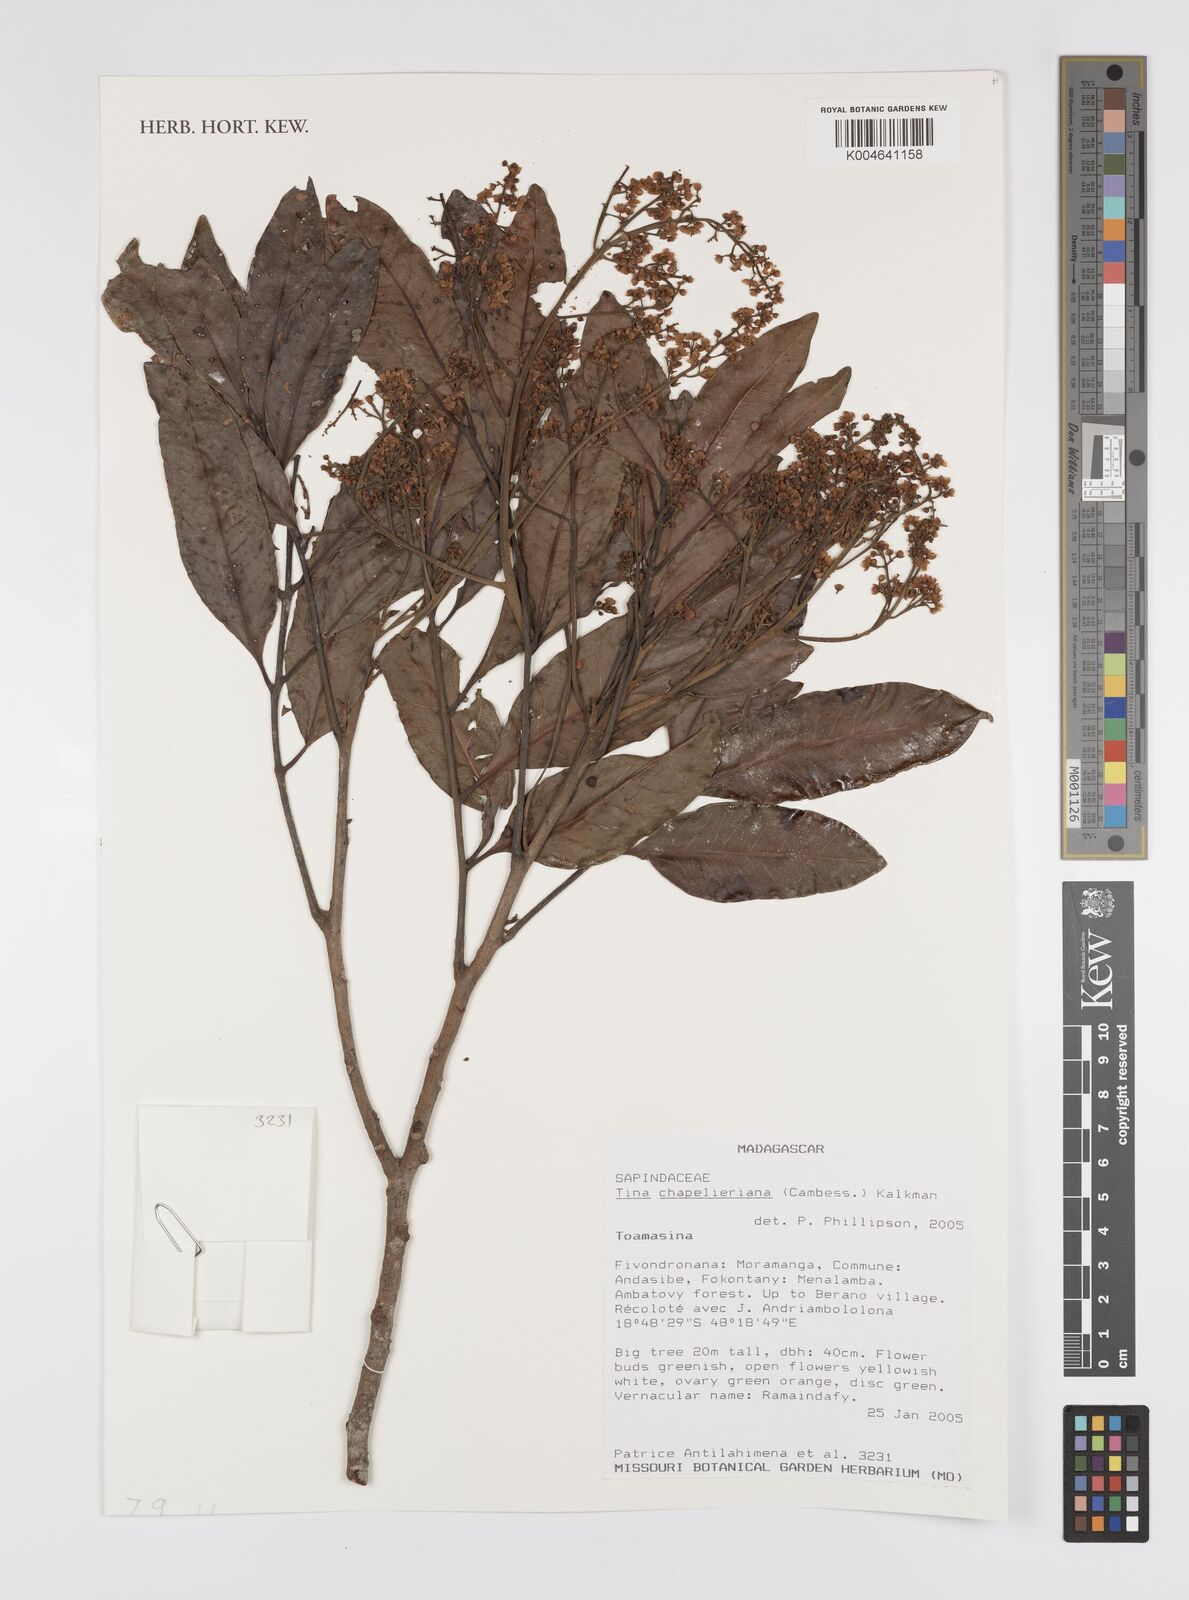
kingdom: Plantae
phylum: Tracheophyta
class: Magnoliopsida
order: Sapindales
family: Sapindaceae
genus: Tina
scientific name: Tina chapelieriana
